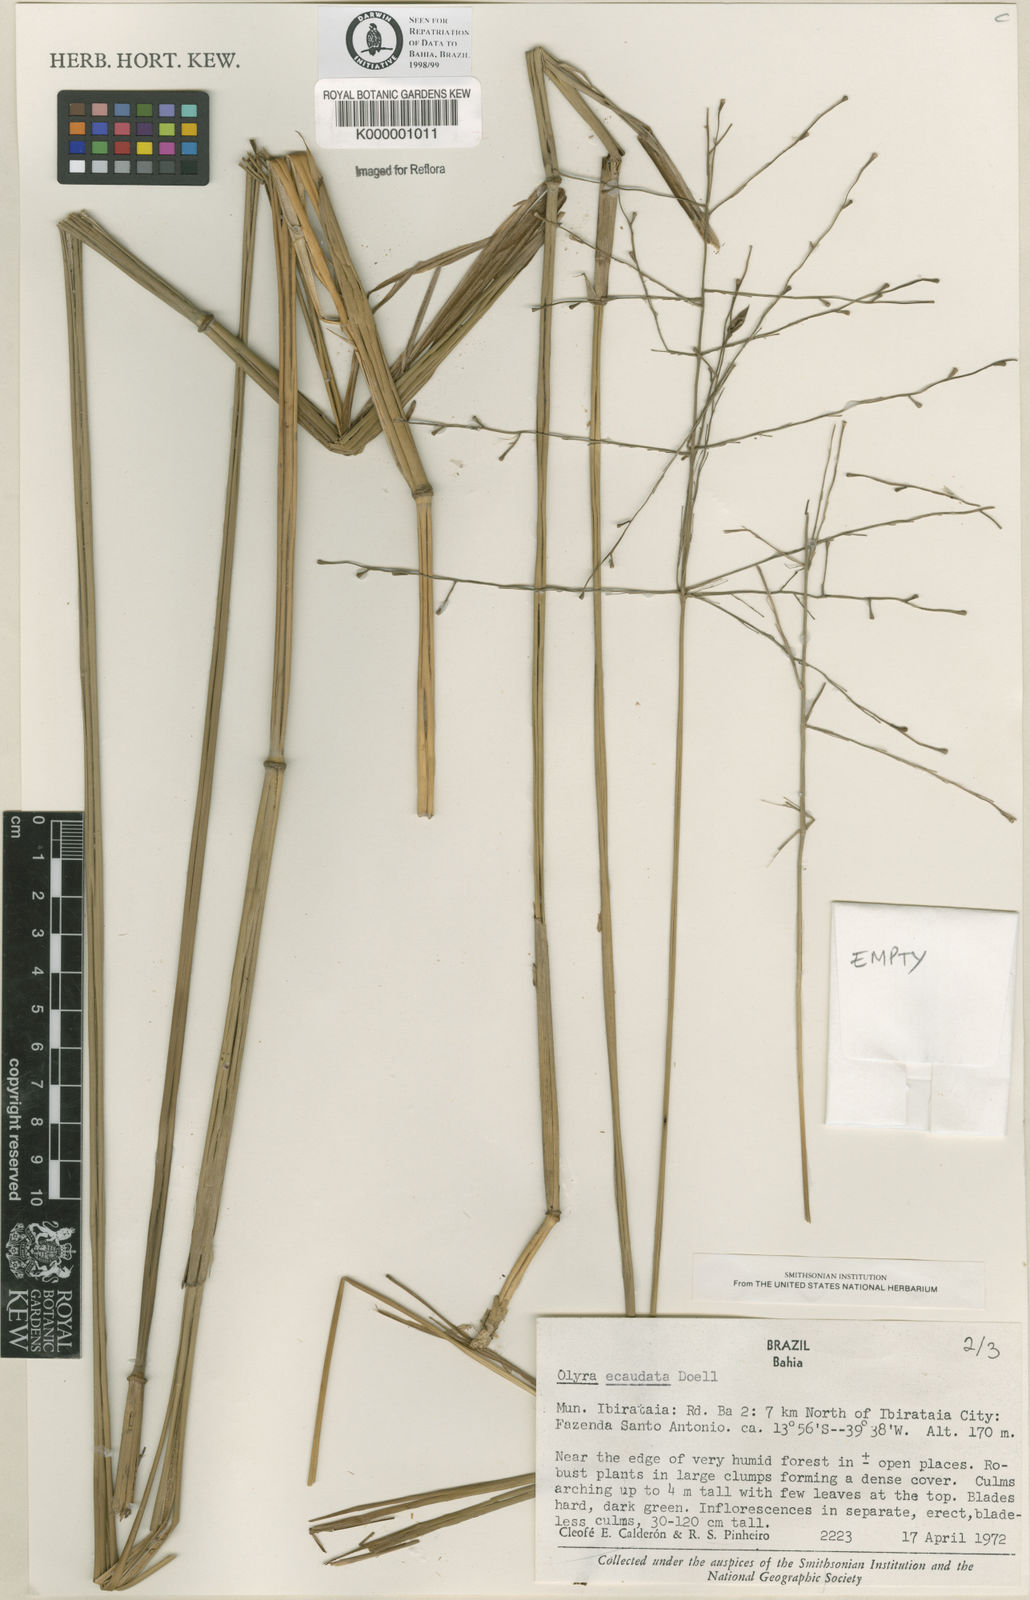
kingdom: Plantae
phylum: Tracheophyta
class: Liliopsida
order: Poales
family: Poaceae
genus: Olyra
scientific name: Olyra
